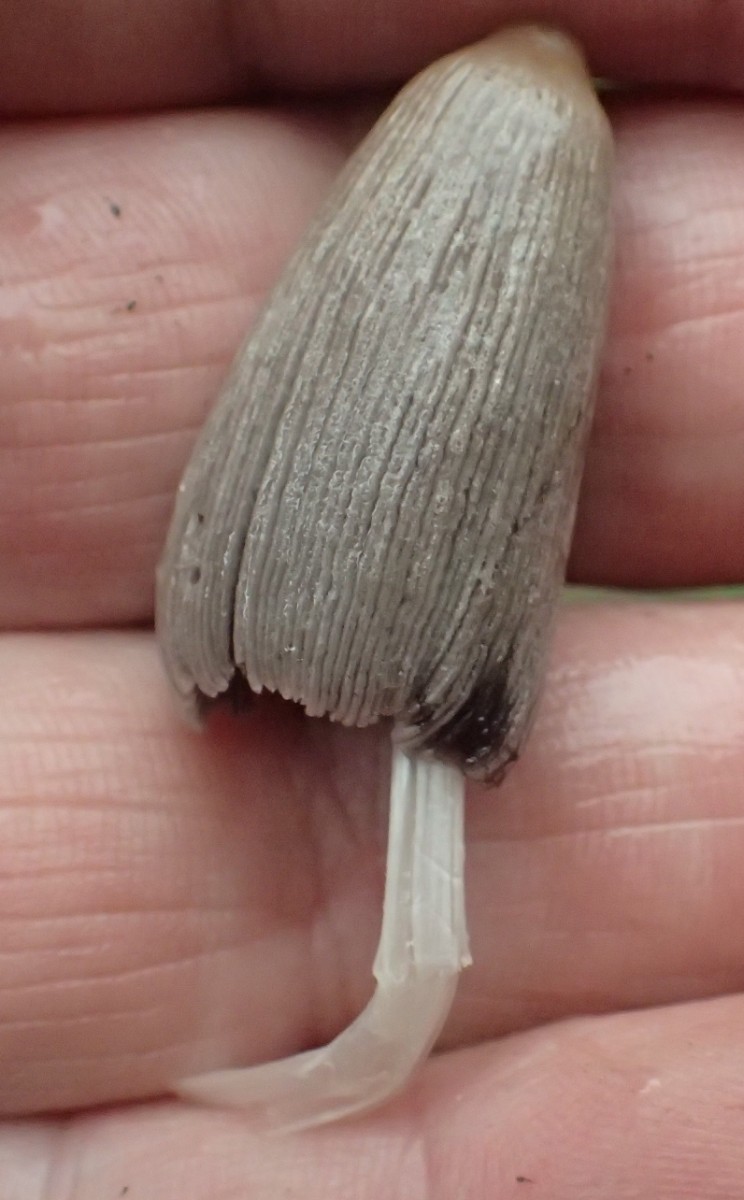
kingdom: Fungi
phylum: Basidiomycota
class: Agaricomycetes
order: Agaricales
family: Psathyrellaceae
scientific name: Psathyrellaceae
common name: mørkhatfamilien
